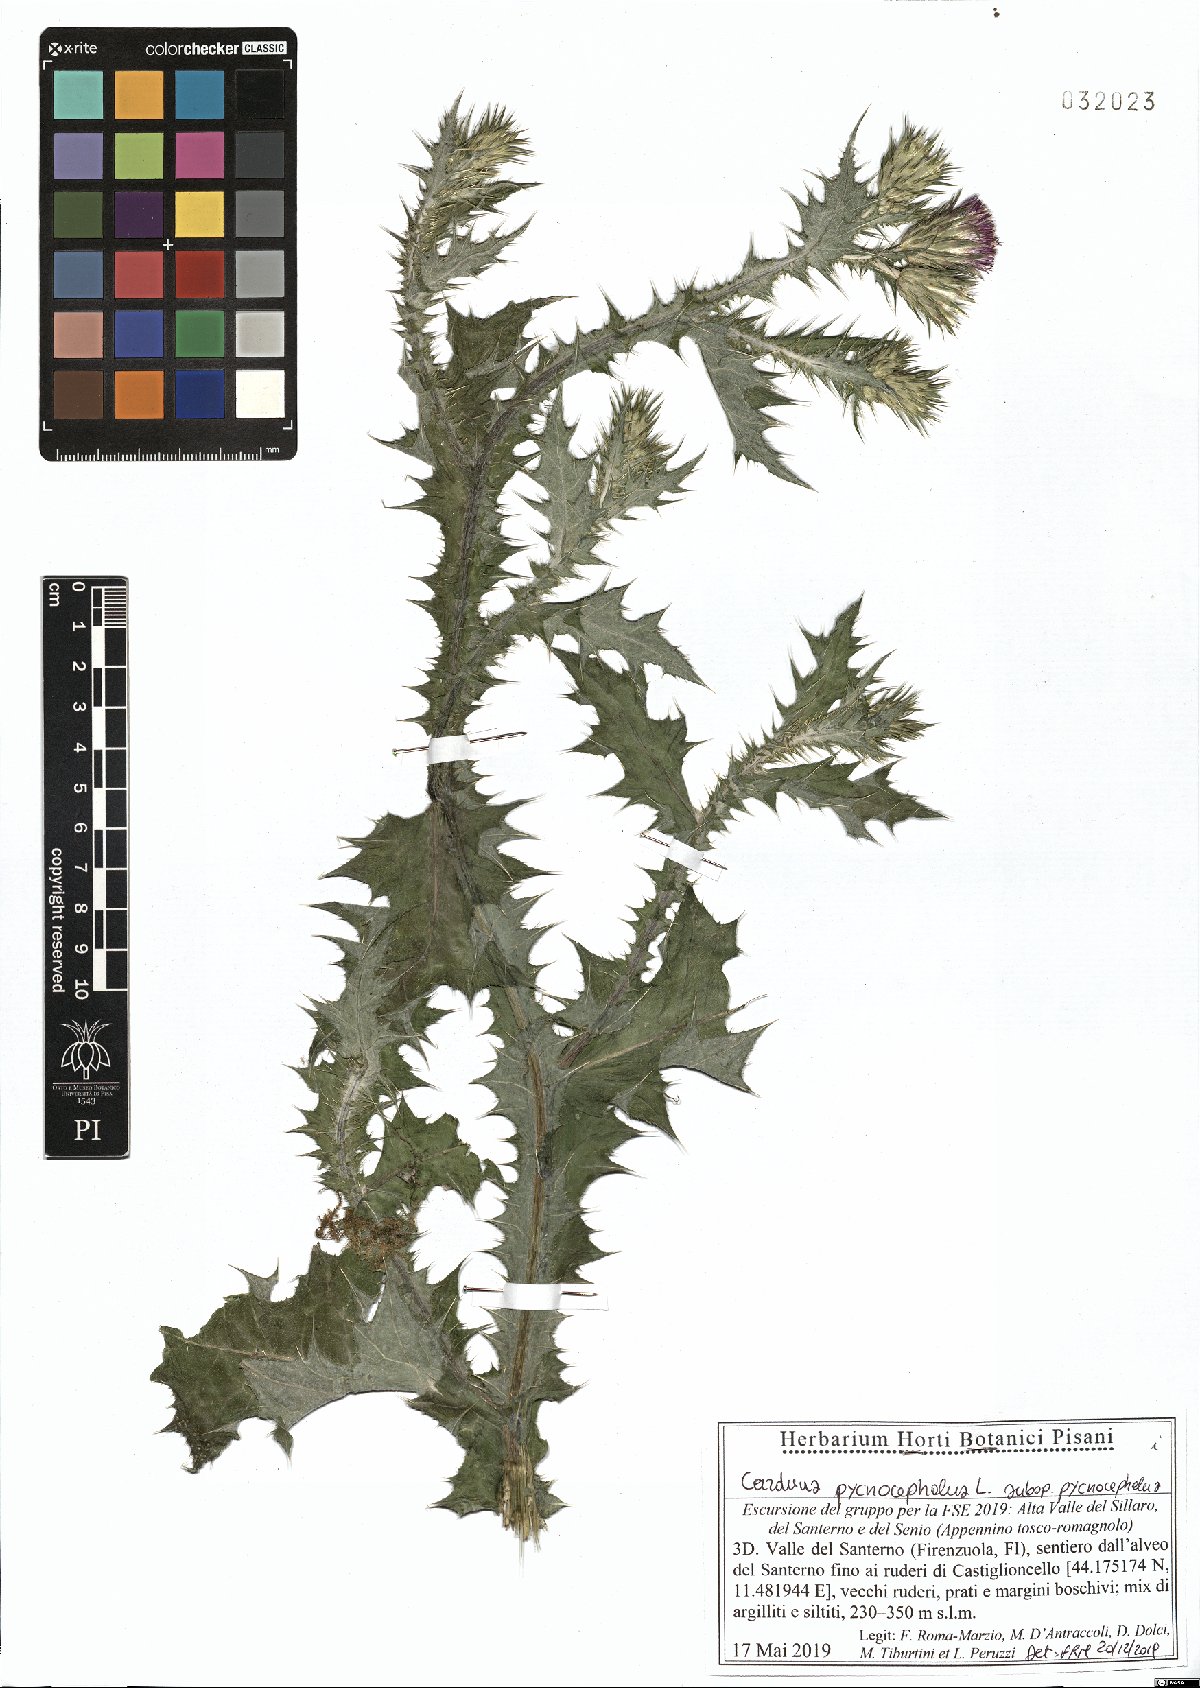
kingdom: Plantae
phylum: Tracheophyta
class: Magnoliopsida
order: Asterales
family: Asteraceae
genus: Carduus
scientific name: Carduus pycnocephalus
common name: Plymouth thistle
